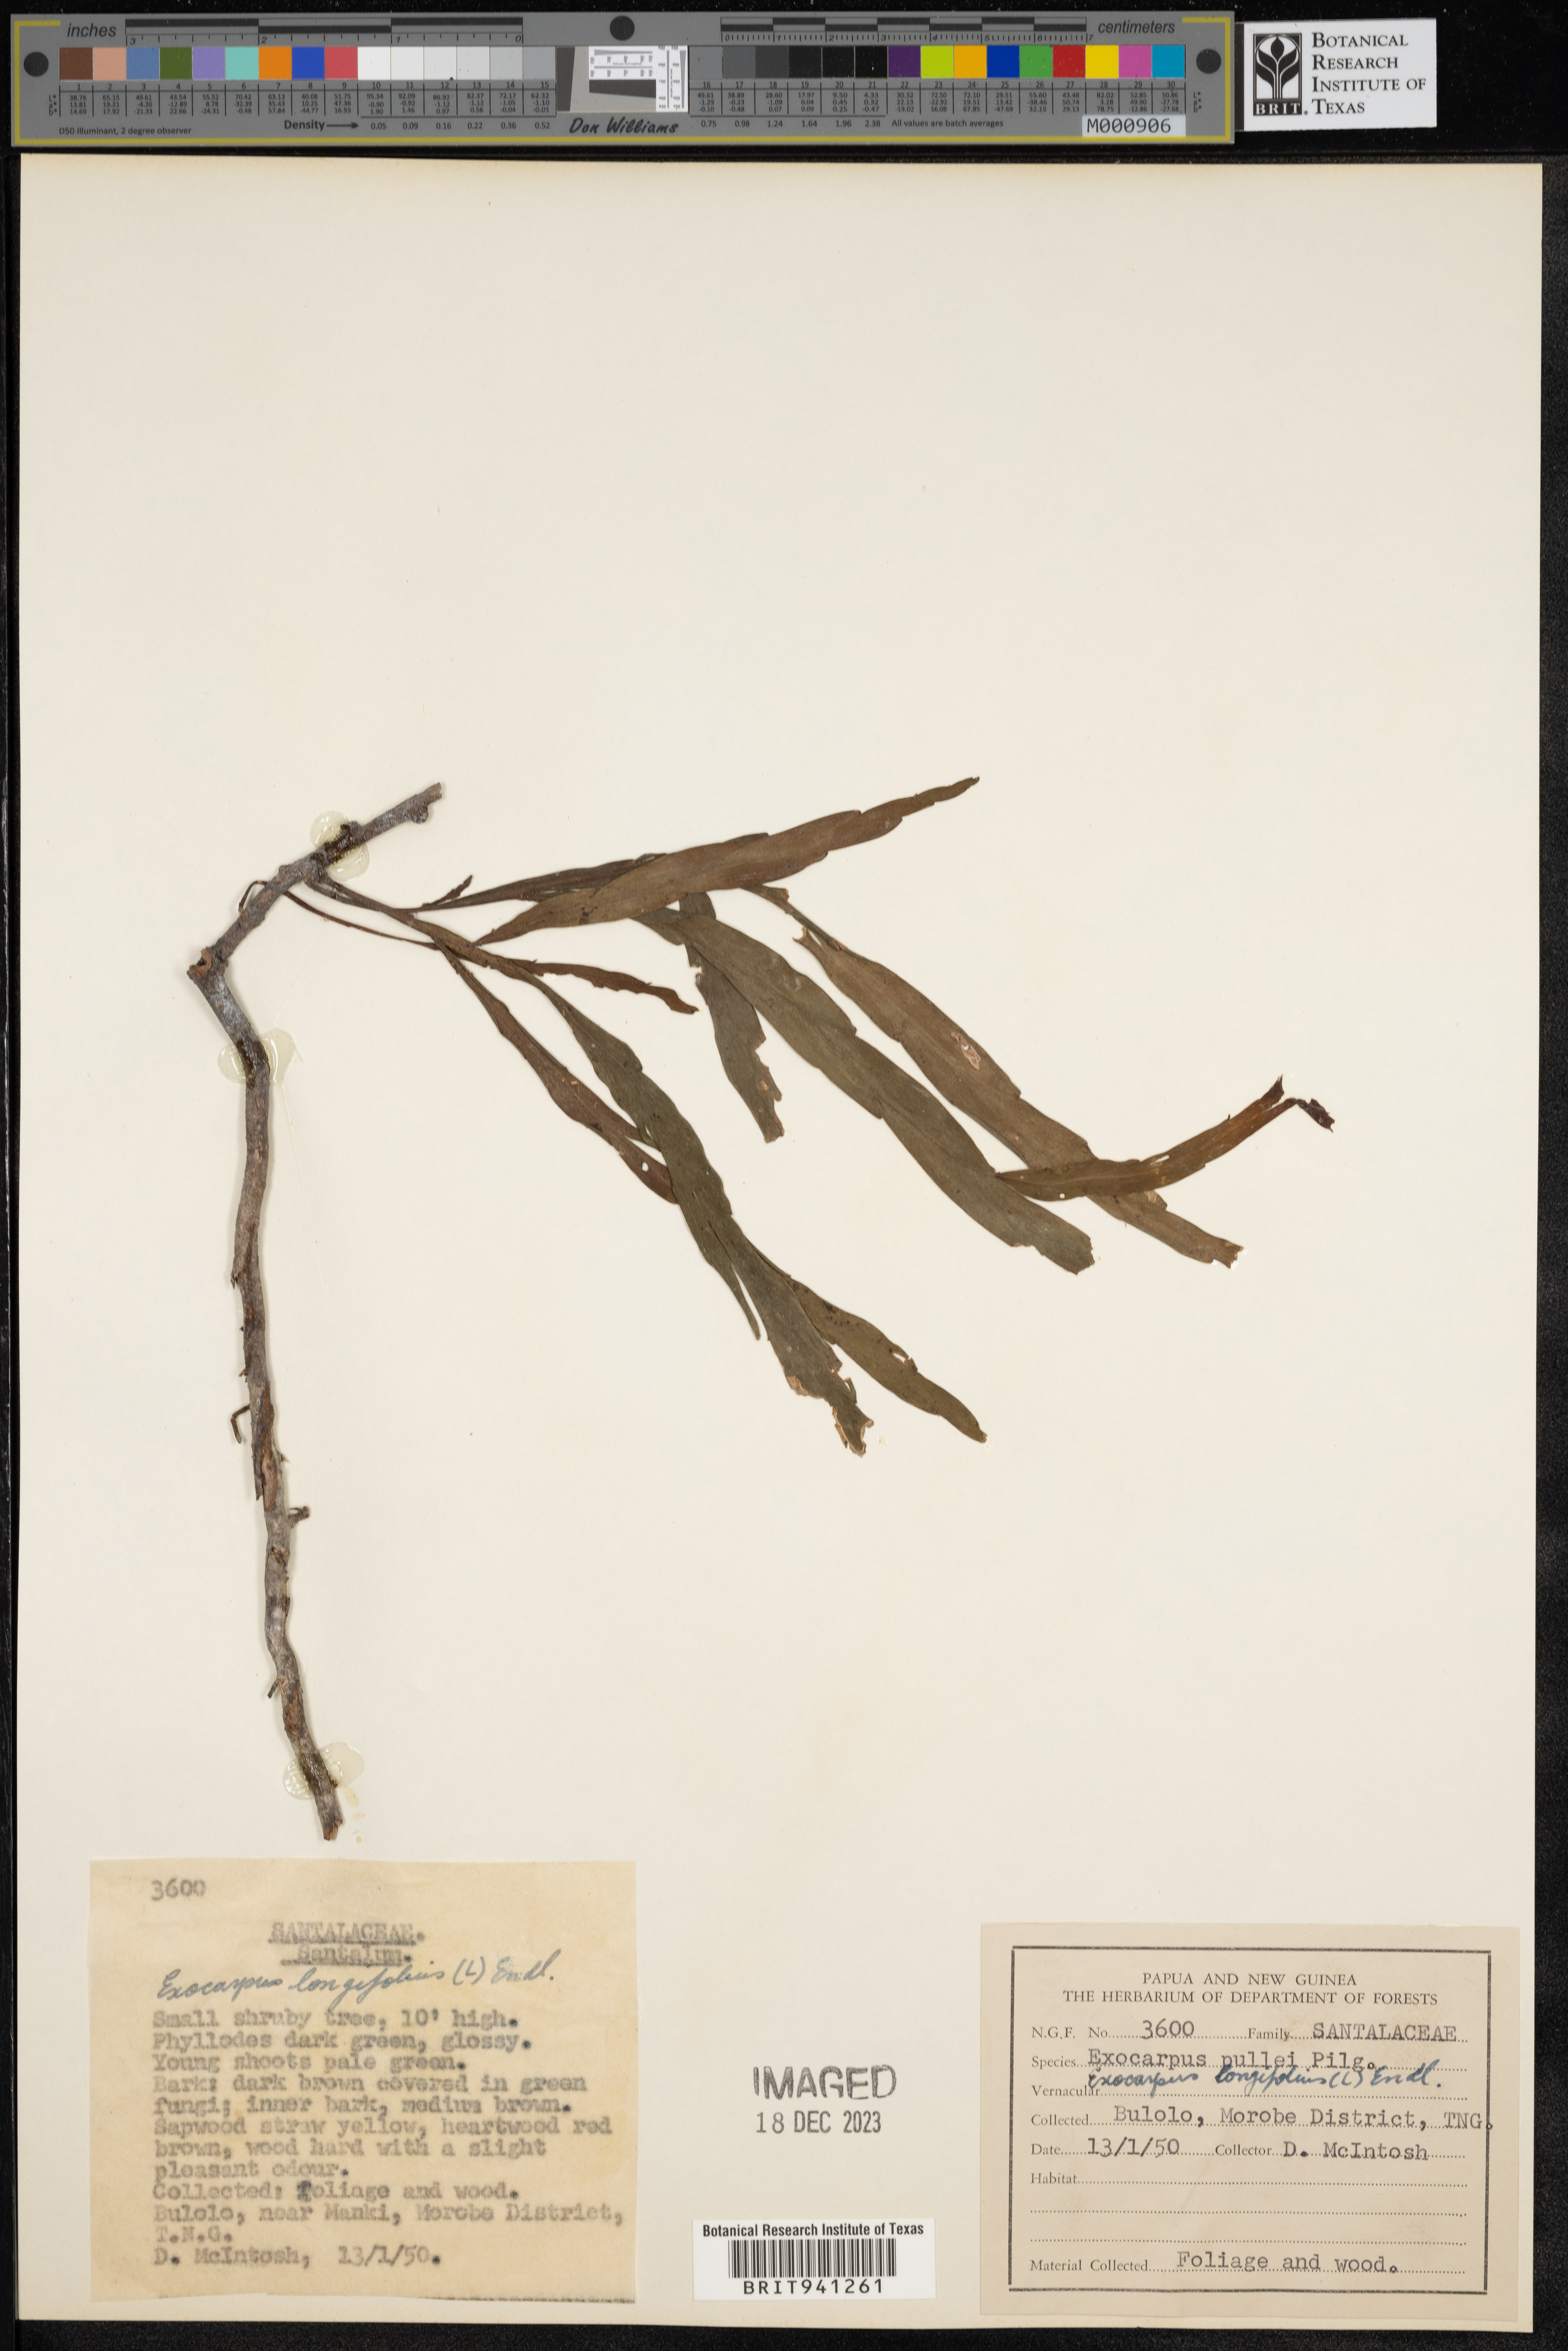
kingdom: Plantae
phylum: Tracheophyta
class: Magnoliopsida
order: Gentianales
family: Rubiaceae
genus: Palicourea
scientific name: Palicourea
